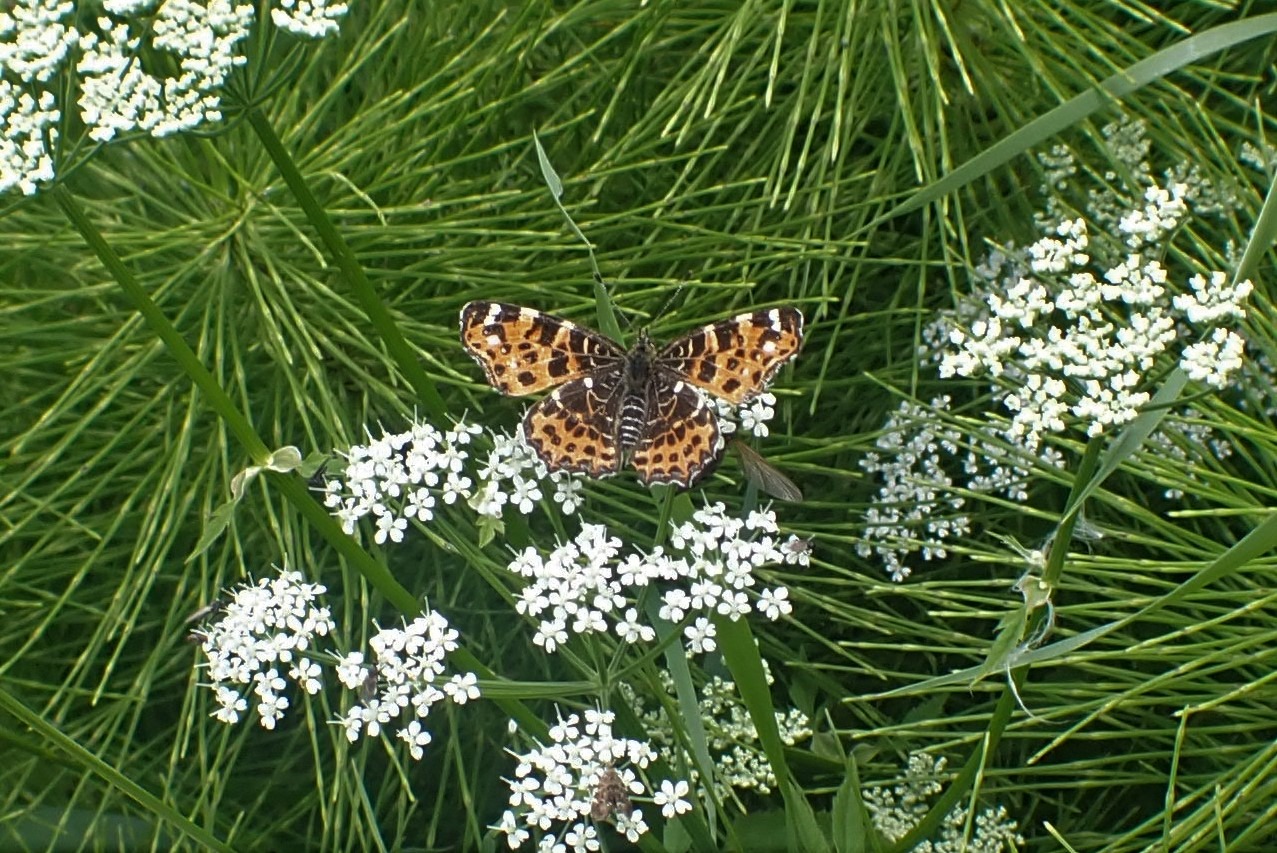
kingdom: Animalia
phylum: Arthropoda
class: Insecta
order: Lepidoptera
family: Nymphalidae
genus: Araschnia
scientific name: Araschnia levana
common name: Nældesommerfugl
